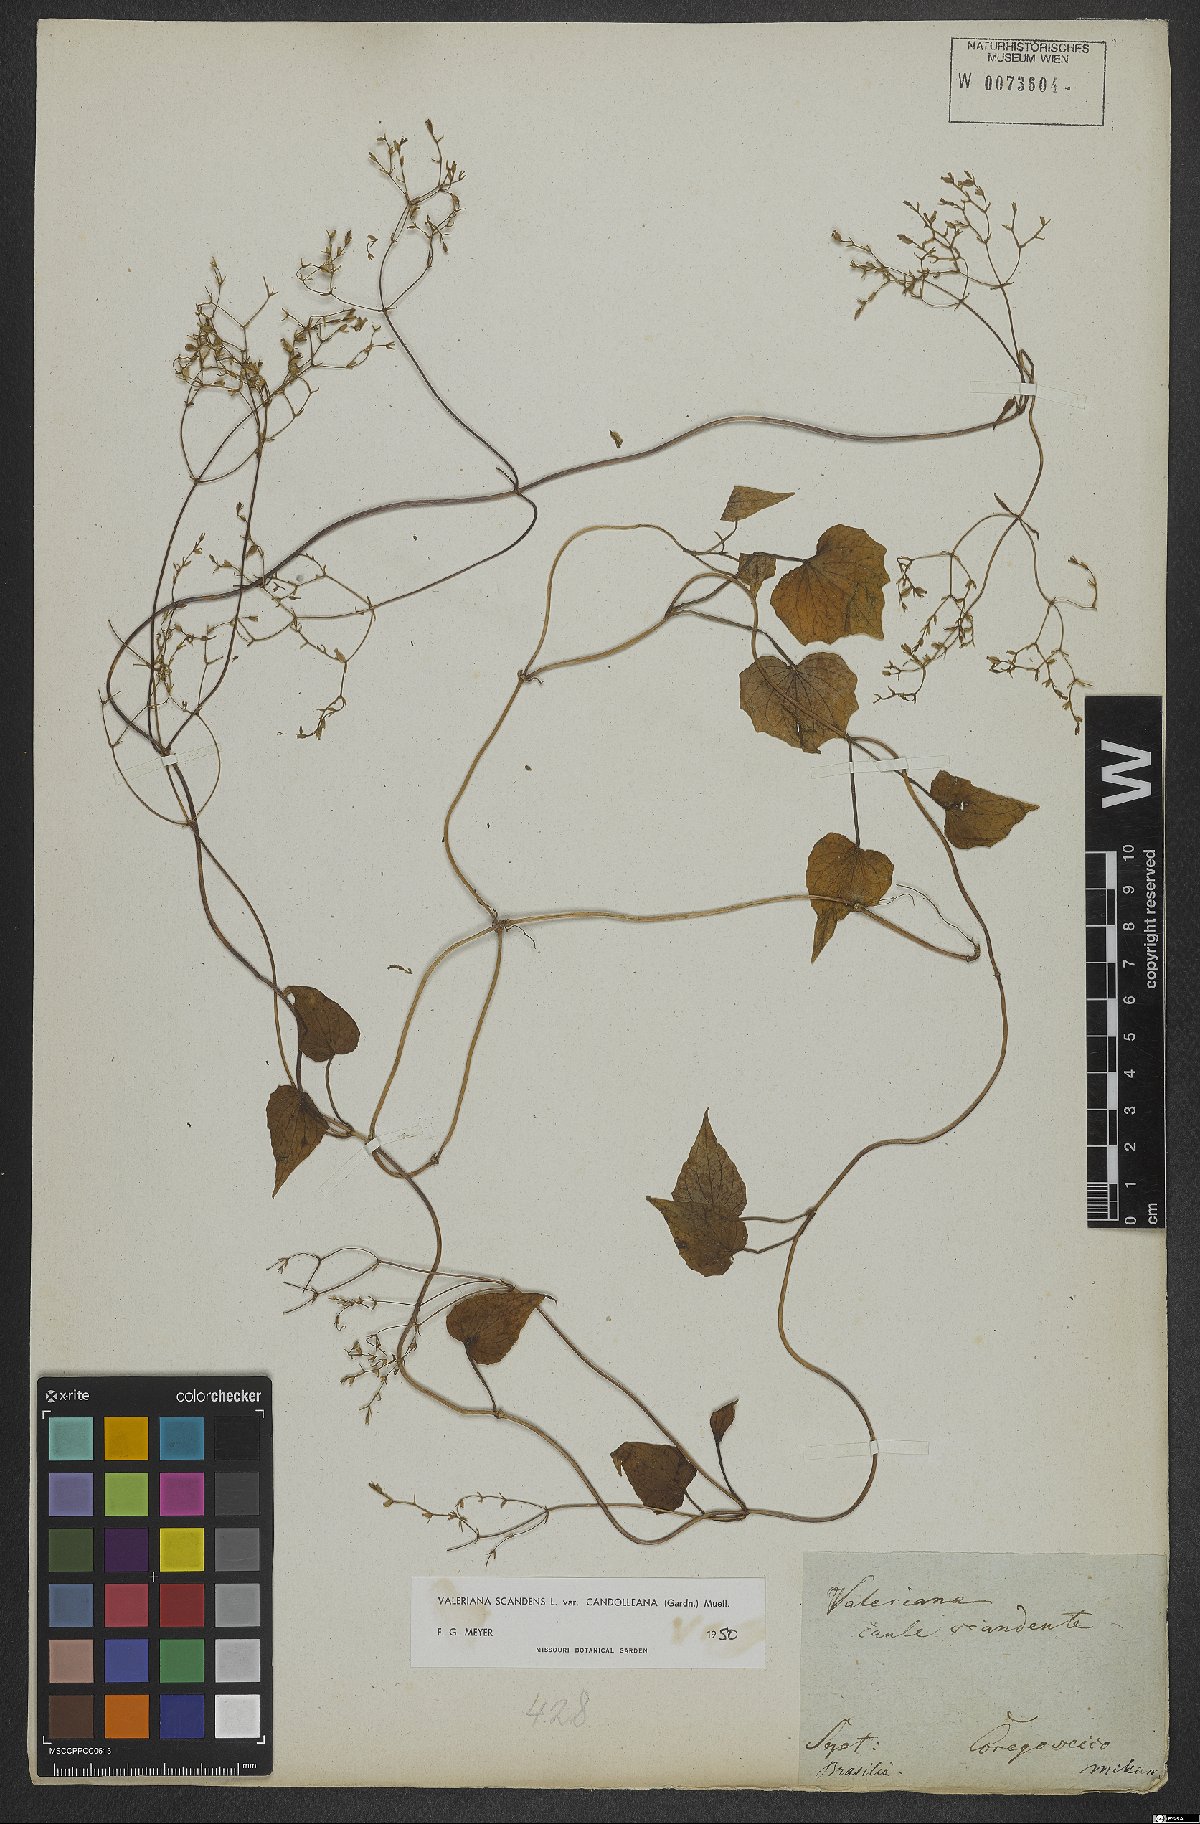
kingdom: Plantae
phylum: Tracheophyta
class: Magnoliopsida
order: Dipsacales
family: Caprifoliaceae
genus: Valeriana
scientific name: Valeriana candolleana
